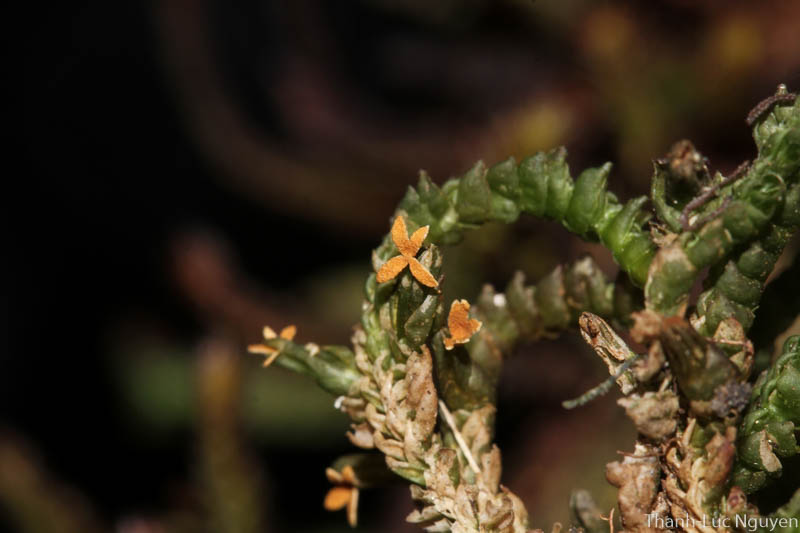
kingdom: Plantae
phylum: Marchantiophyta
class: Jungermanniopsida
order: Pleuroziales
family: Pleuroziaceae
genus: Pleurozia
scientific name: Pleurozia
